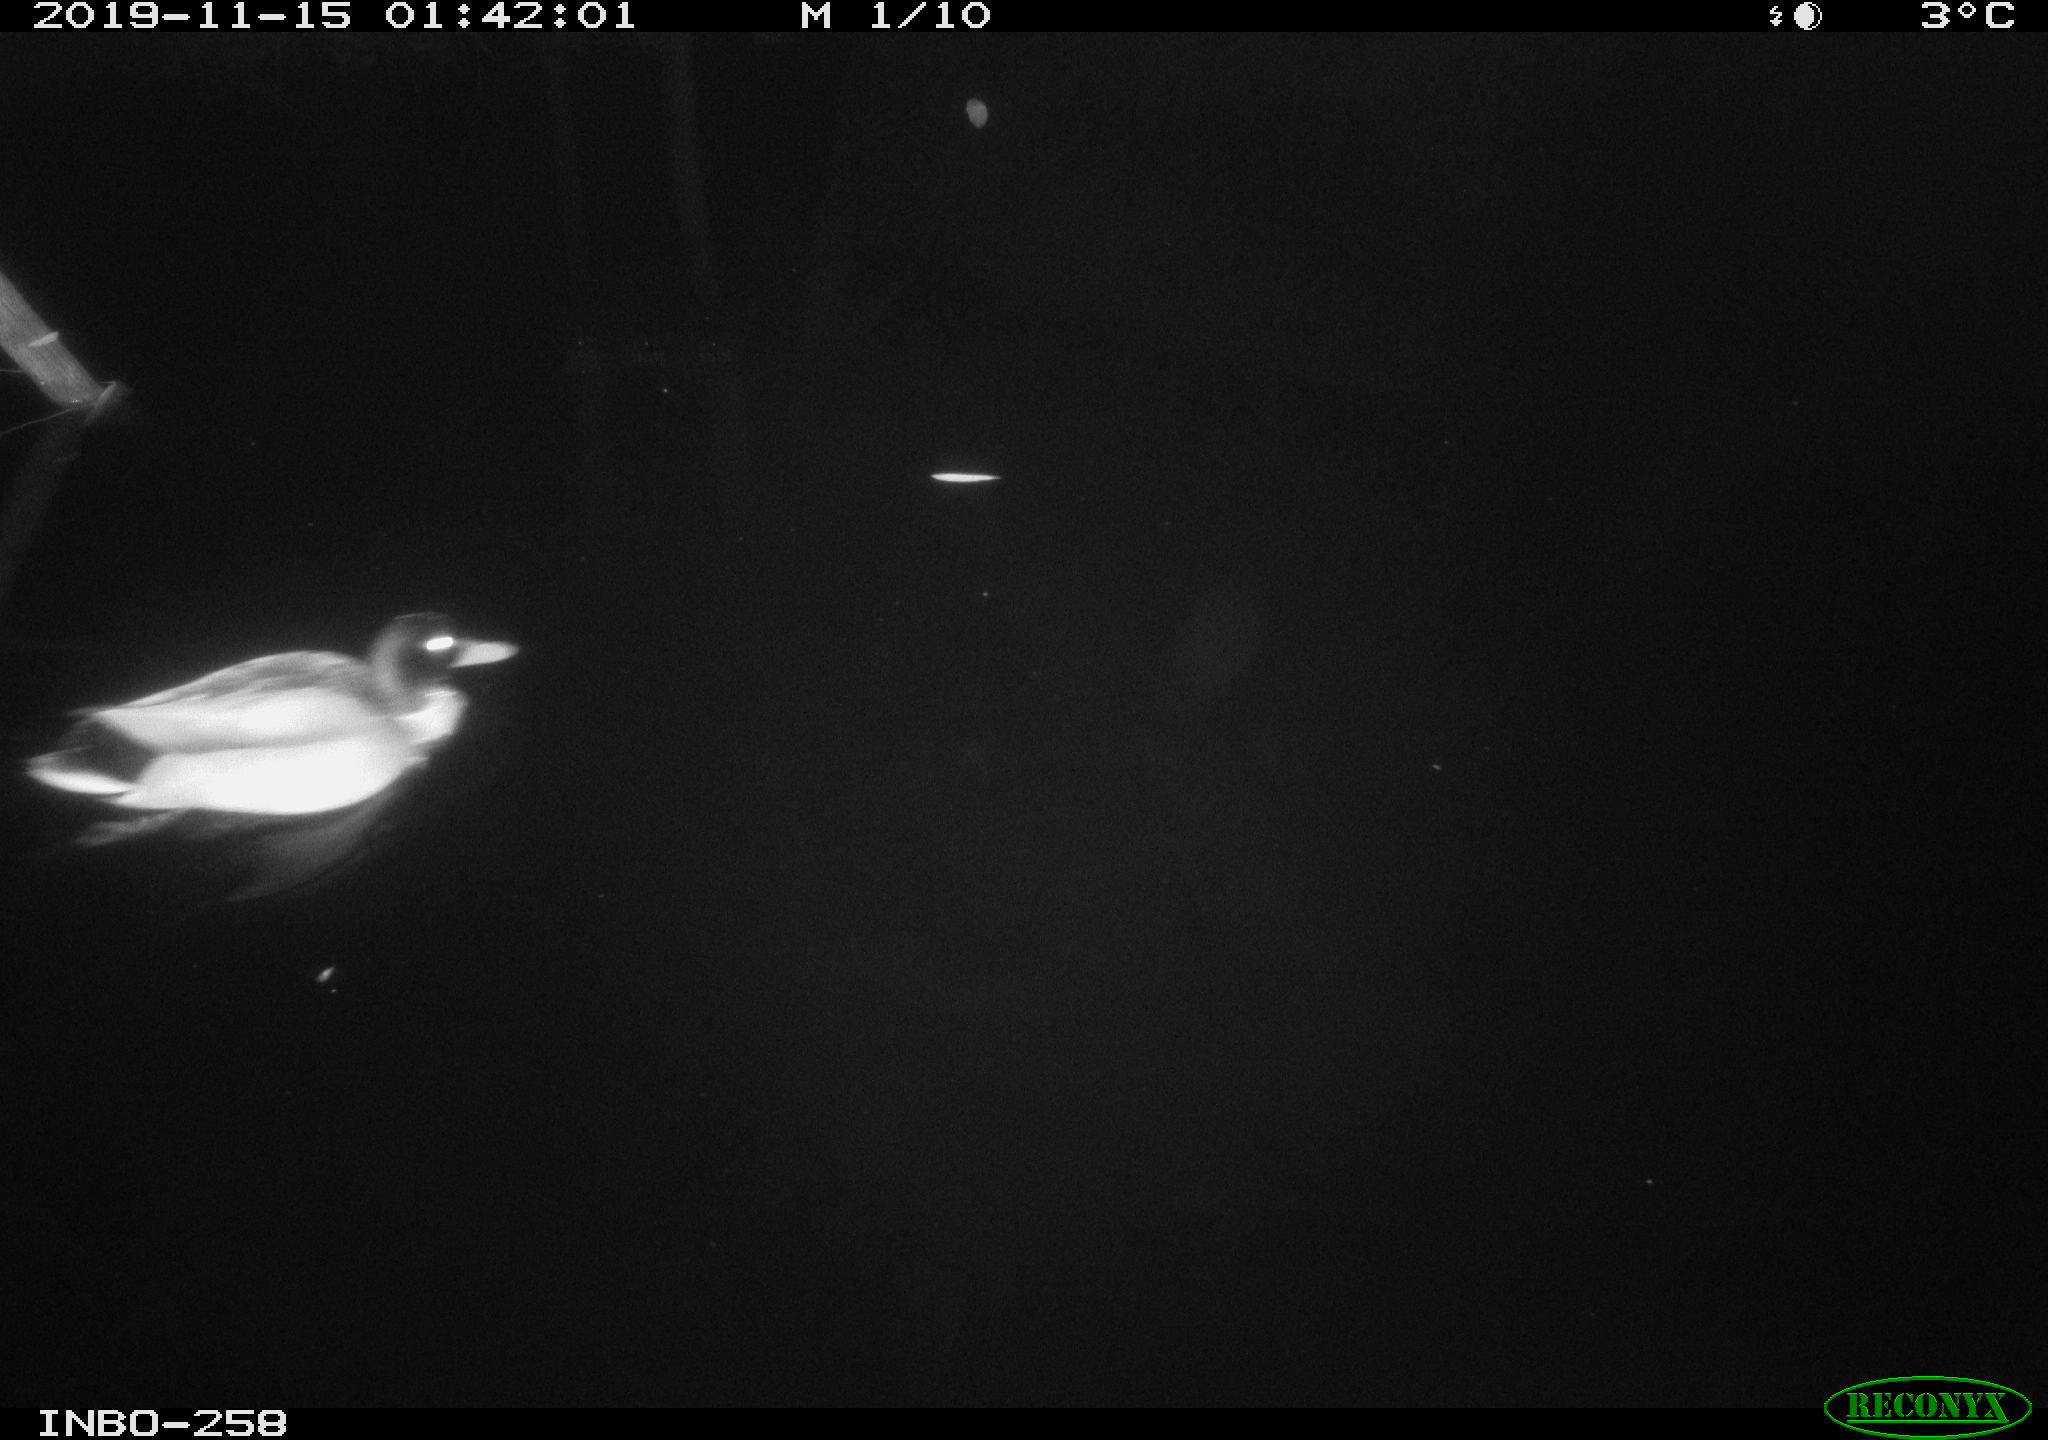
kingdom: Animalia
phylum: Chordata
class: Aves
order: Anseriformes
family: Anatidae
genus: Anas
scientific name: Anas platyrhynchos
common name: Mallard
